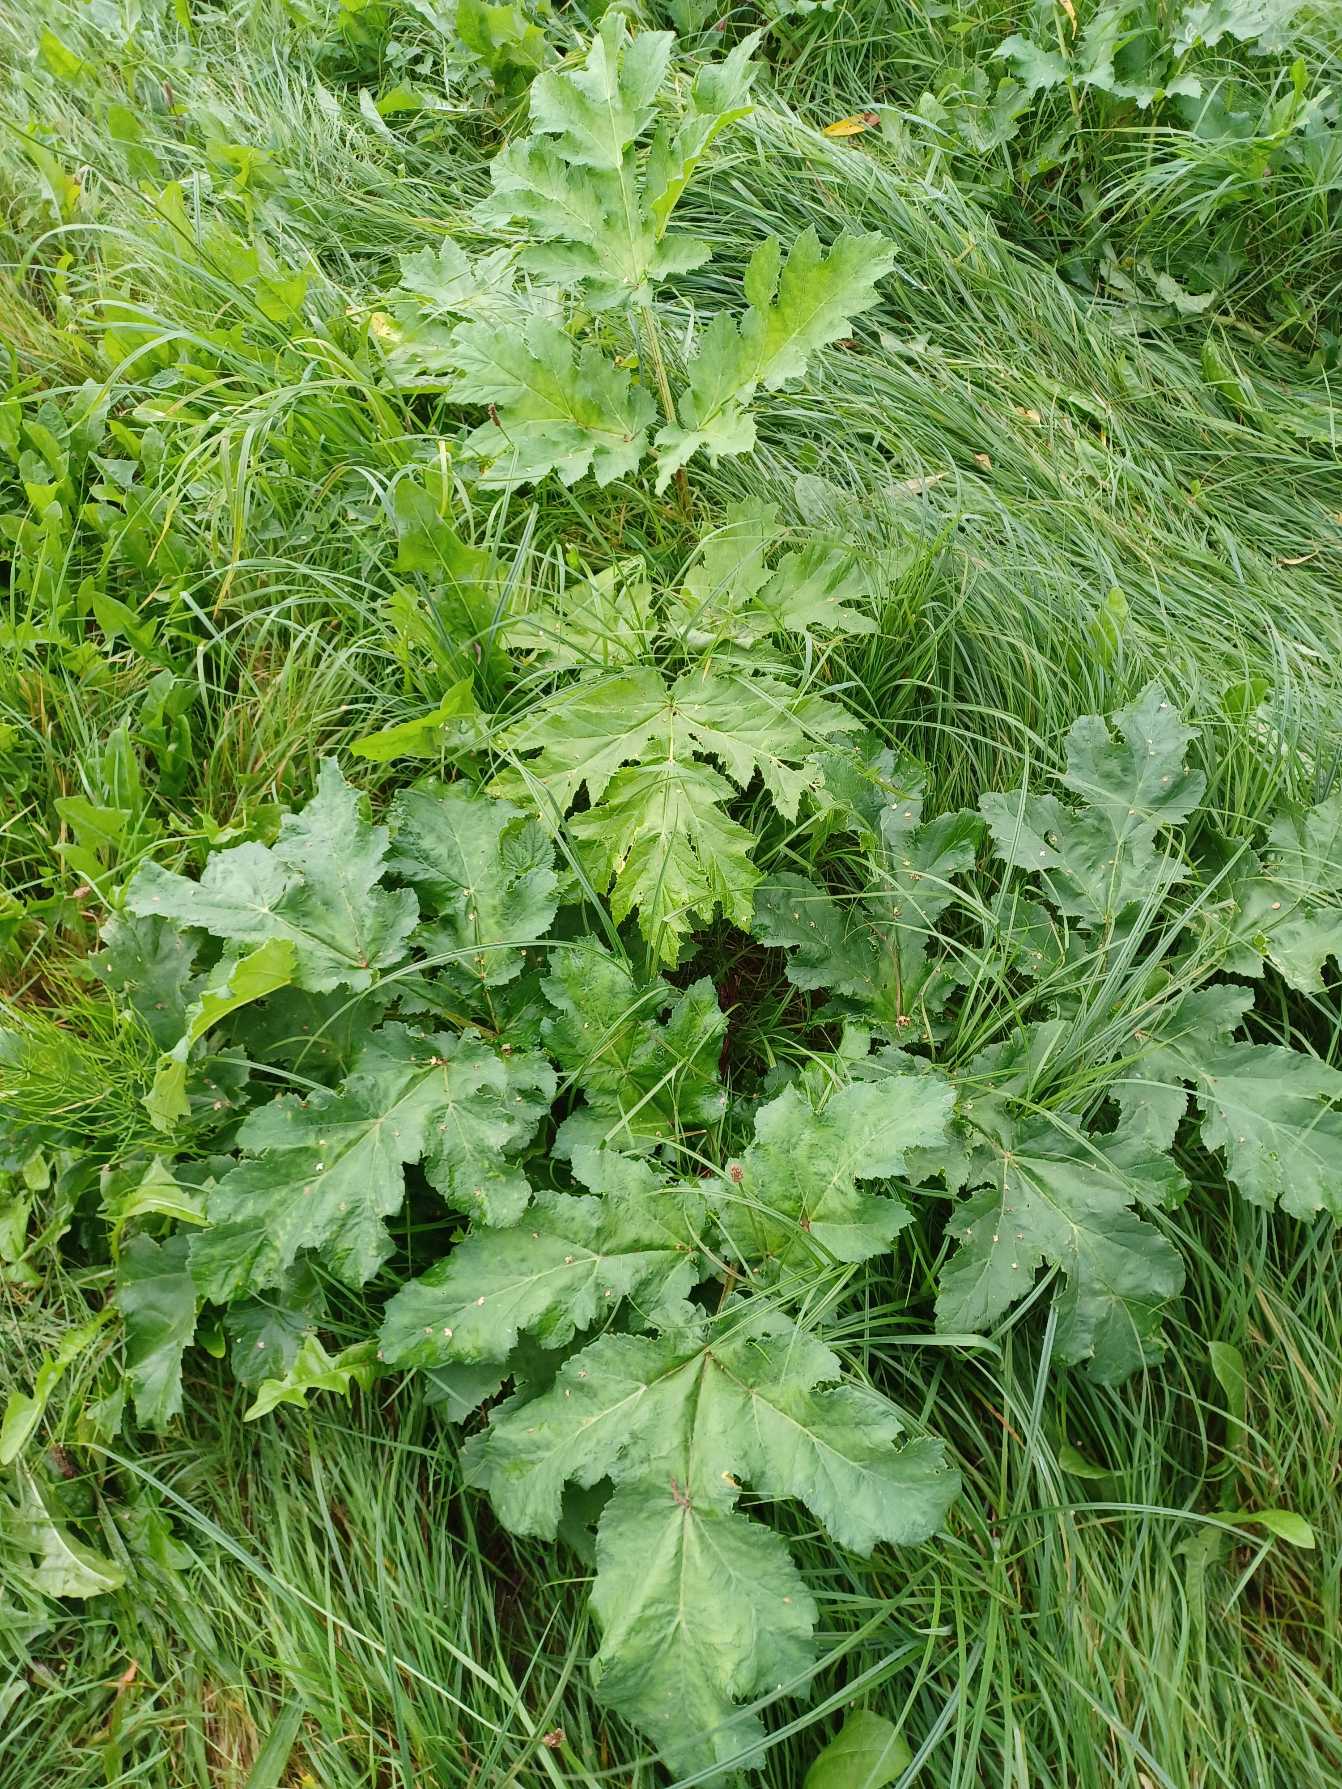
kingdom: Plantae
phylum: Tracheophyta
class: Magnoliopsida
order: Apiales
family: Apiaceae
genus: Heracleum
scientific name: Heracleum mantegazzianum
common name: Kæmpe-bjørneklo
